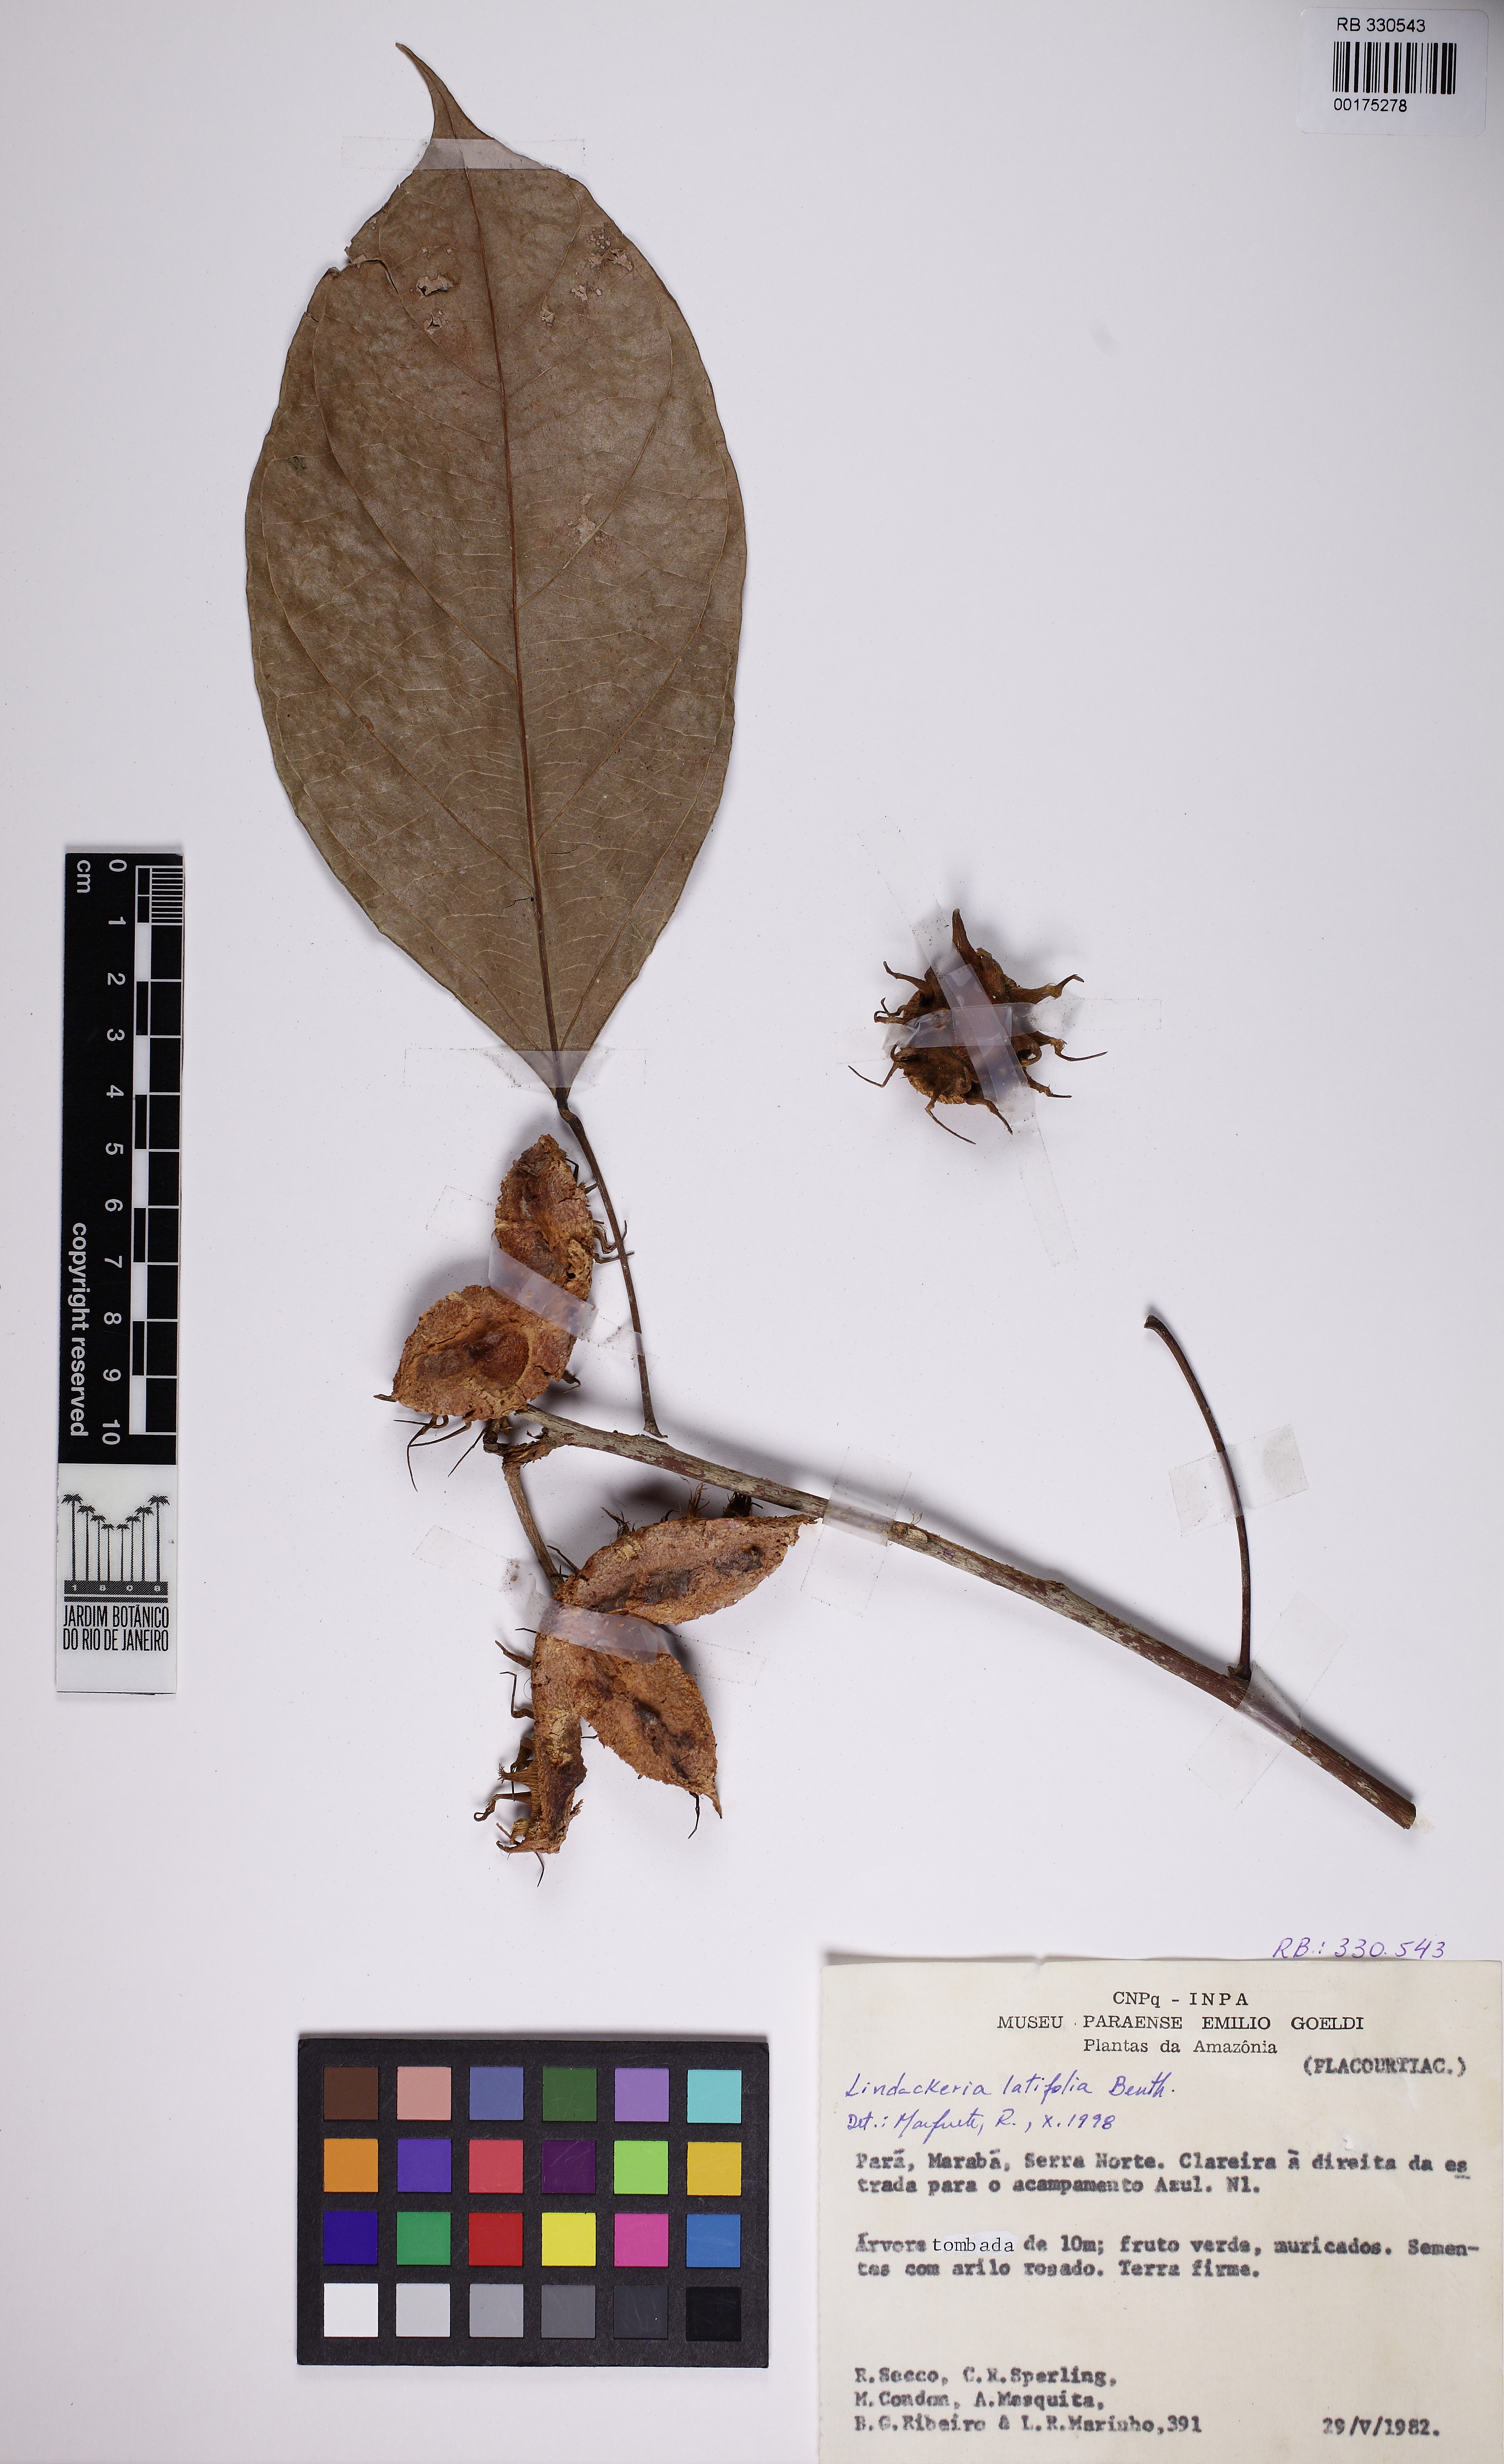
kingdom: Plantae
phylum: Tracheophyta
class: Magnoliopsida
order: Malpighiales
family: Achariaceae
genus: Lindackeria
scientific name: Lindackeria latifolia
